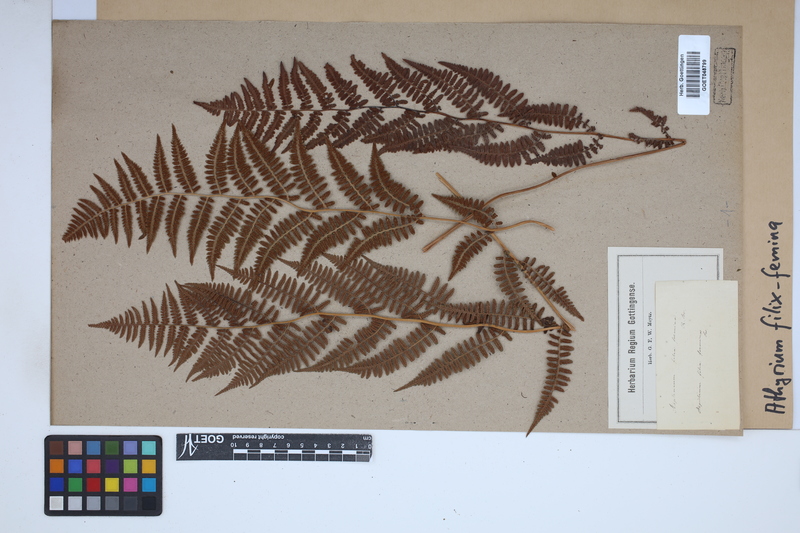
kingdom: Plantae
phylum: Tracheophyta
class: Polypodiopsida
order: Polypodiales
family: Athyriaceae
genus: Athyrium
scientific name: Athyrium filix-femina
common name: Lady fern
